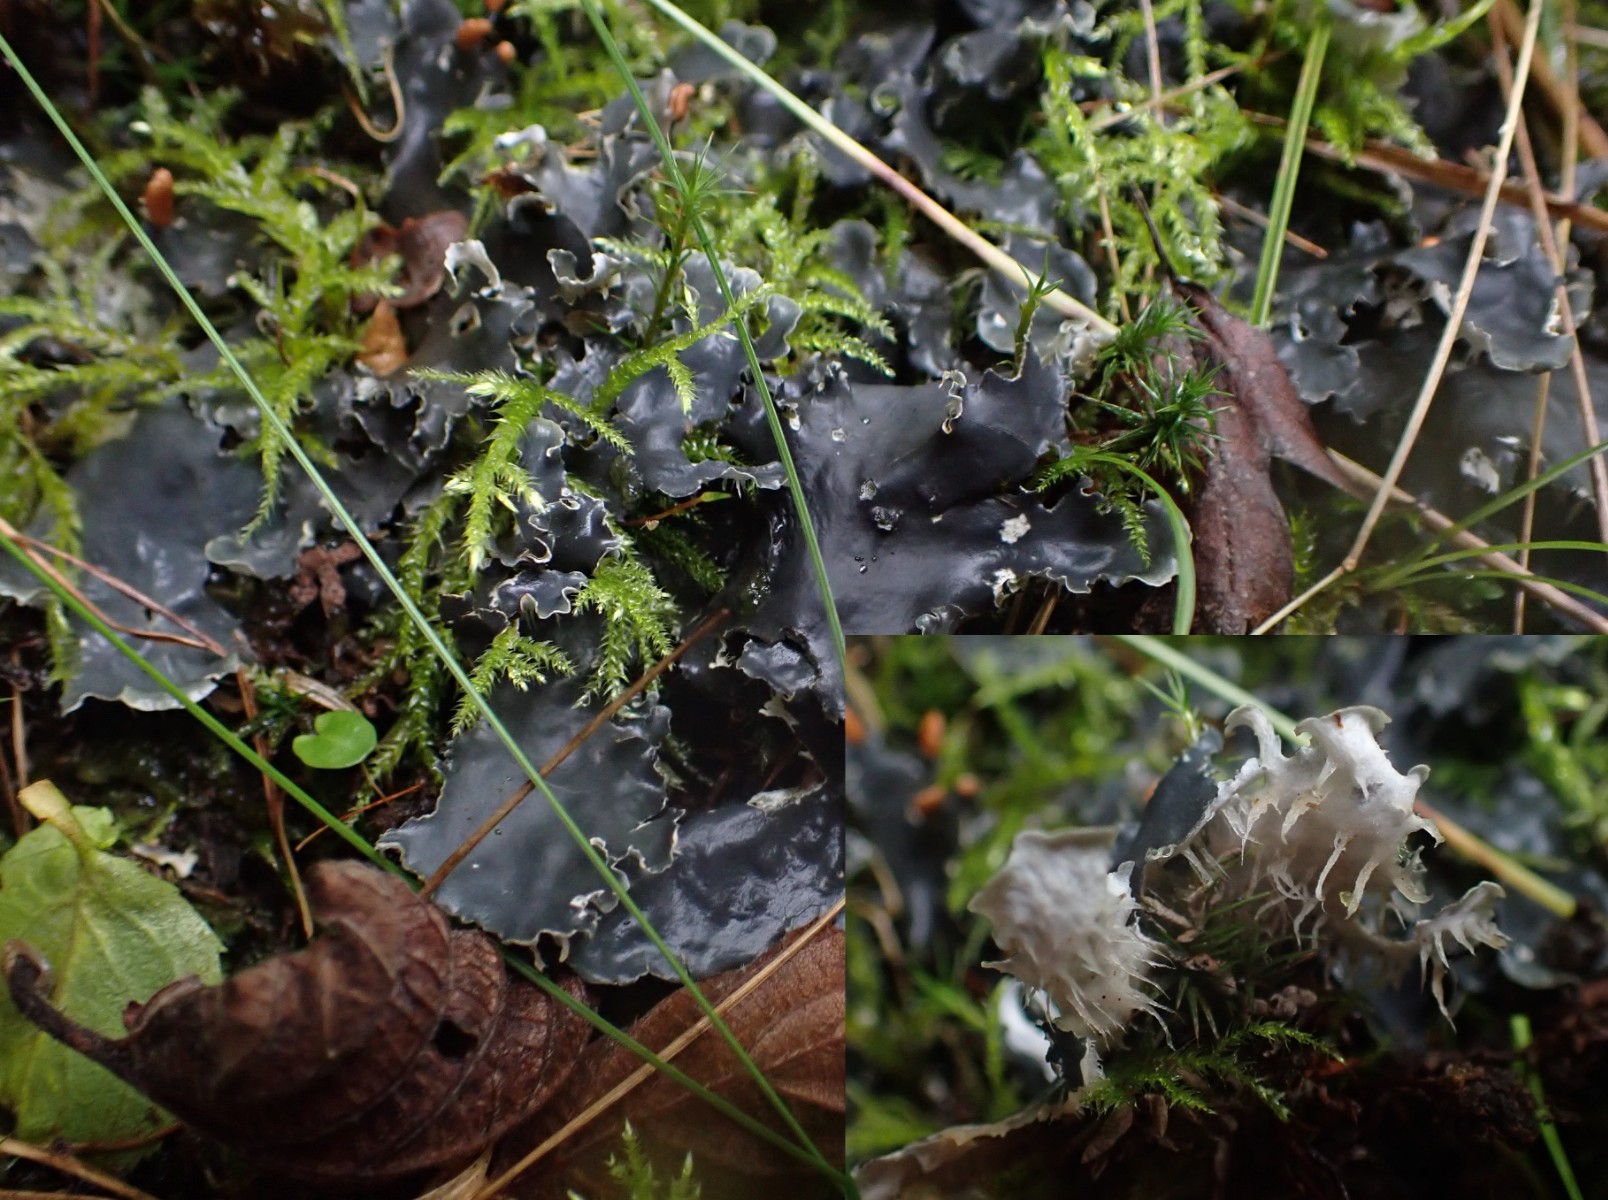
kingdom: Fungi
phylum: Ascomycota
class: Lecanoromycetes
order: Peltigerales
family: Peltigeraceae
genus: Peltigera
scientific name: Peltigera hymenina
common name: hinde-skjoldlav
